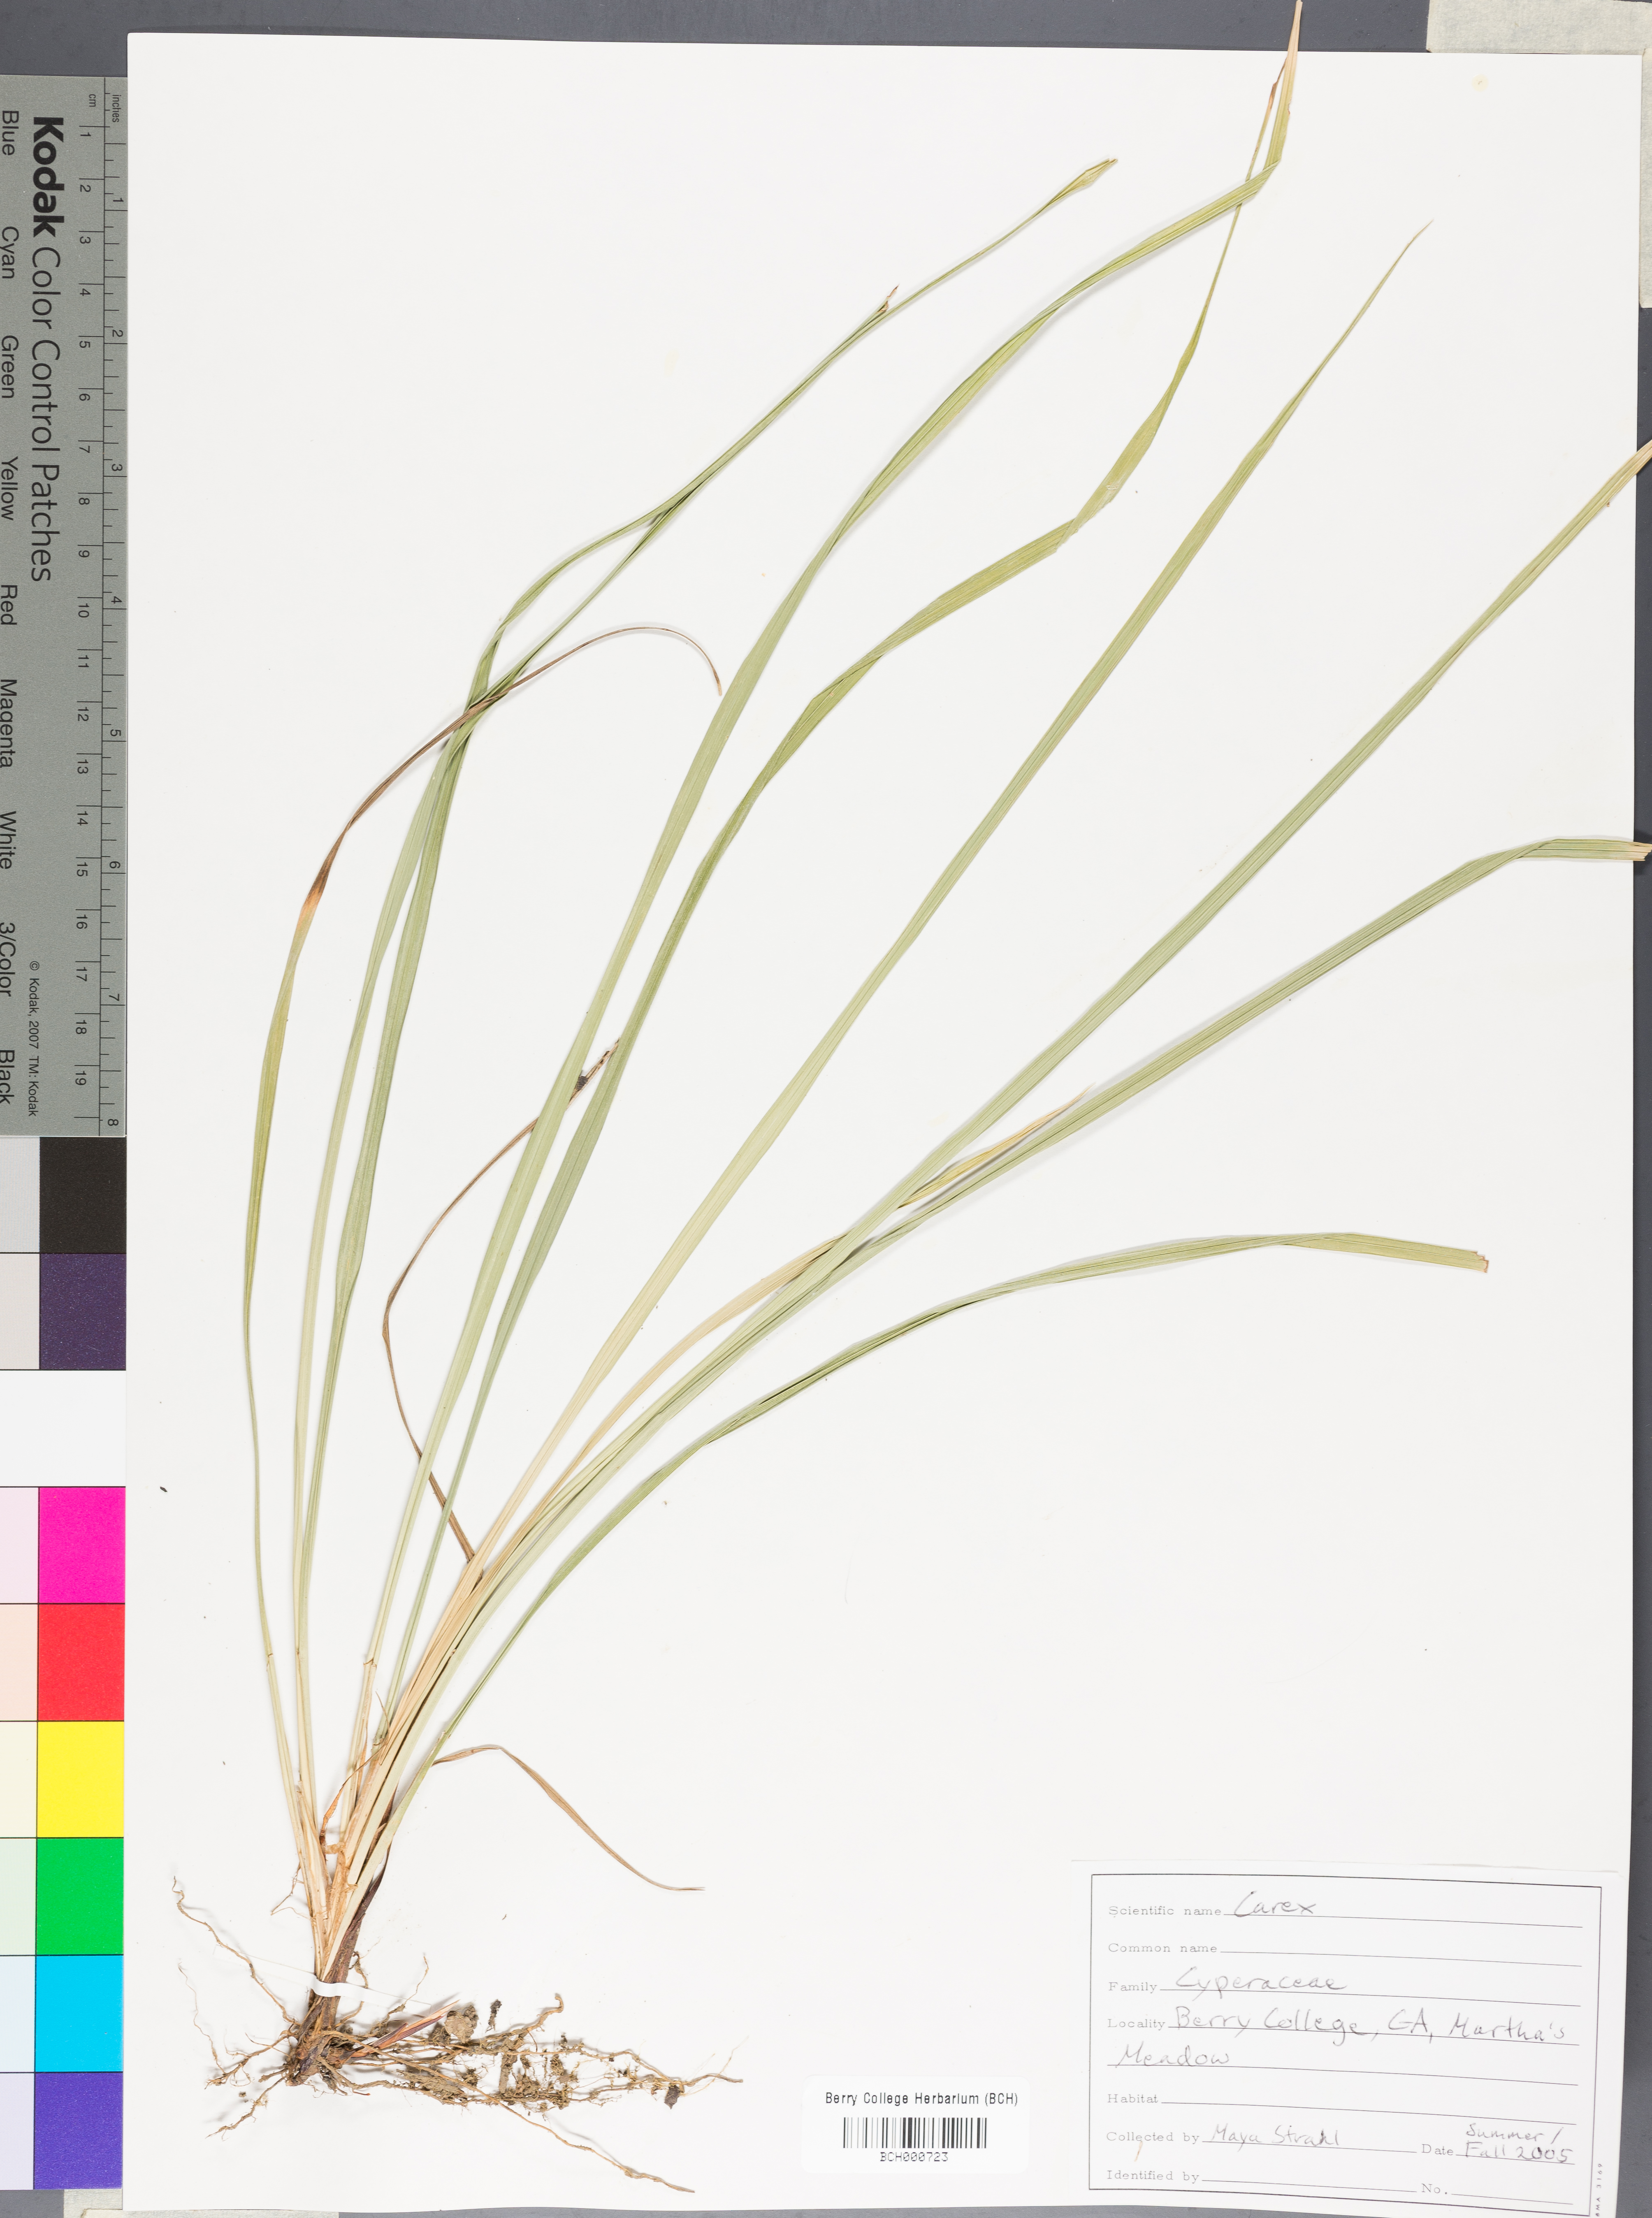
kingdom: Plantae
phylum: Tracheophyta
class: Liliopsida
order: Poales
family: Cyperaceae
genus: Carex
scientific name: Carex
